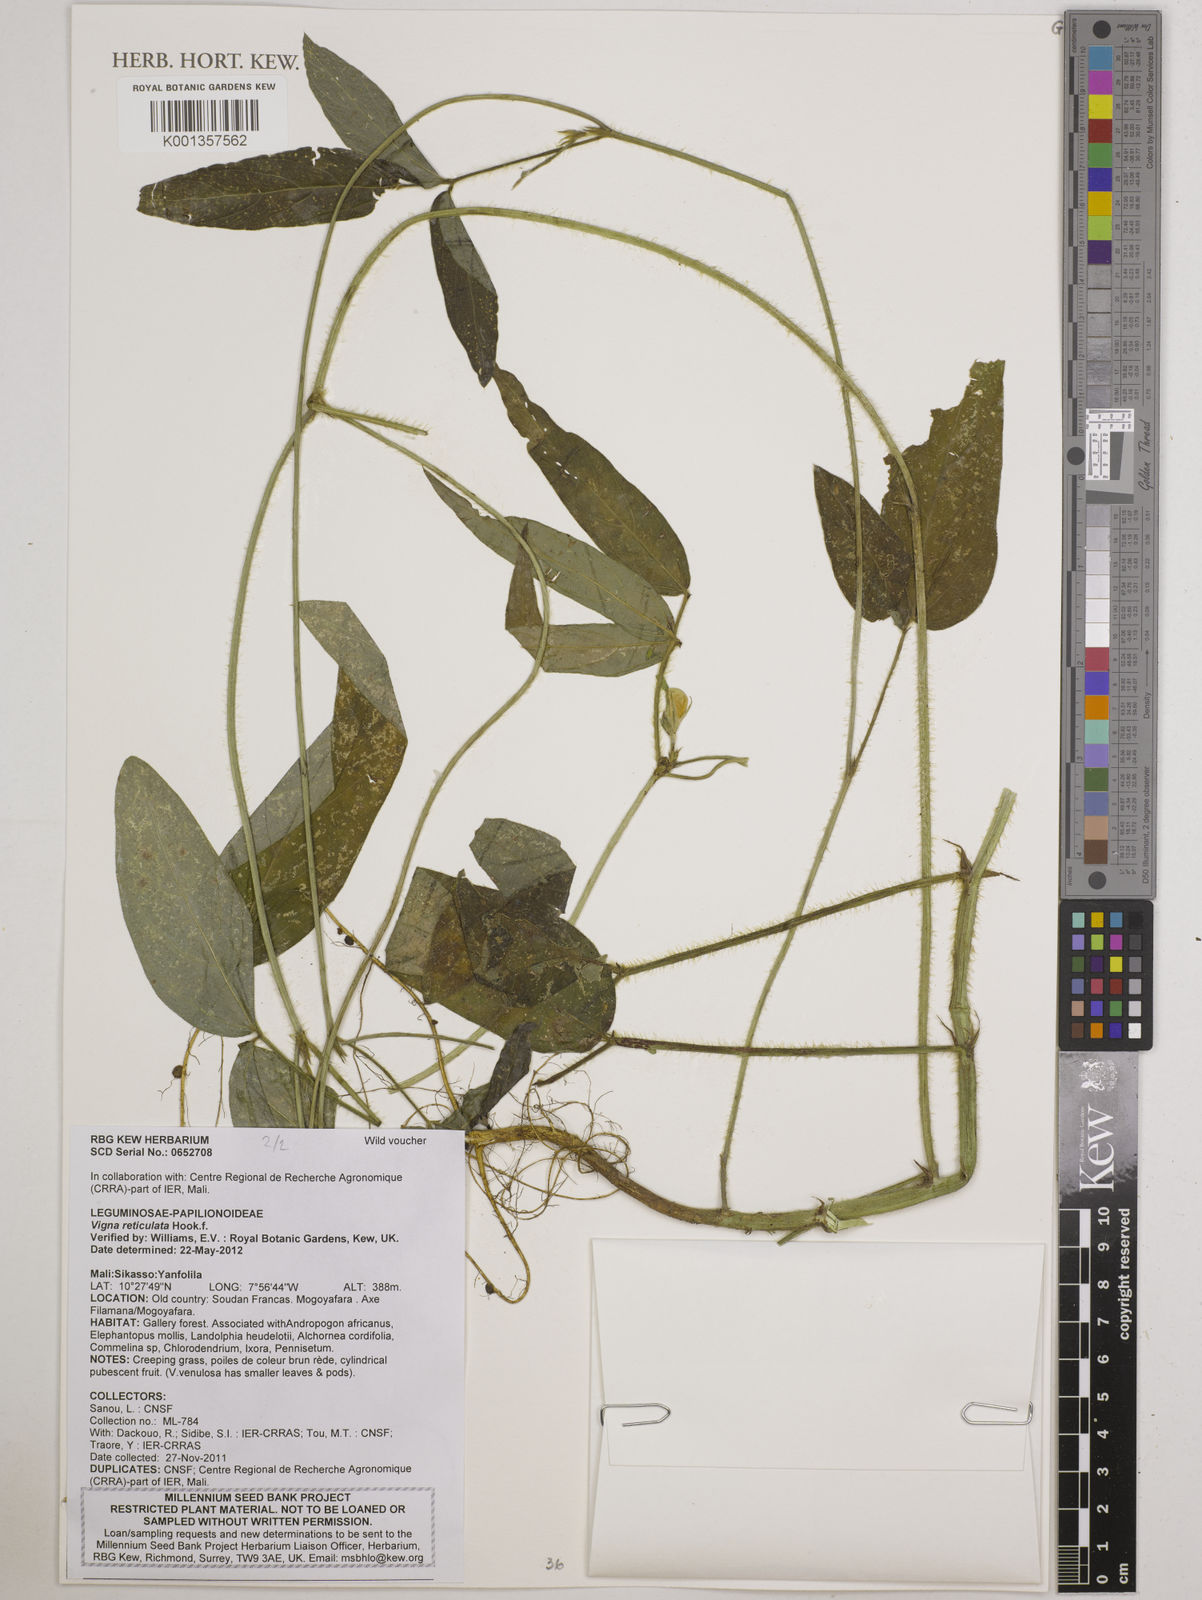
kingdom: Plantae
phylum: Tracheophyta
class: Magnoliopsida
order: Fabales
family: Fabaceae
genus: Vigna
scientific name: Vigna reticulata
